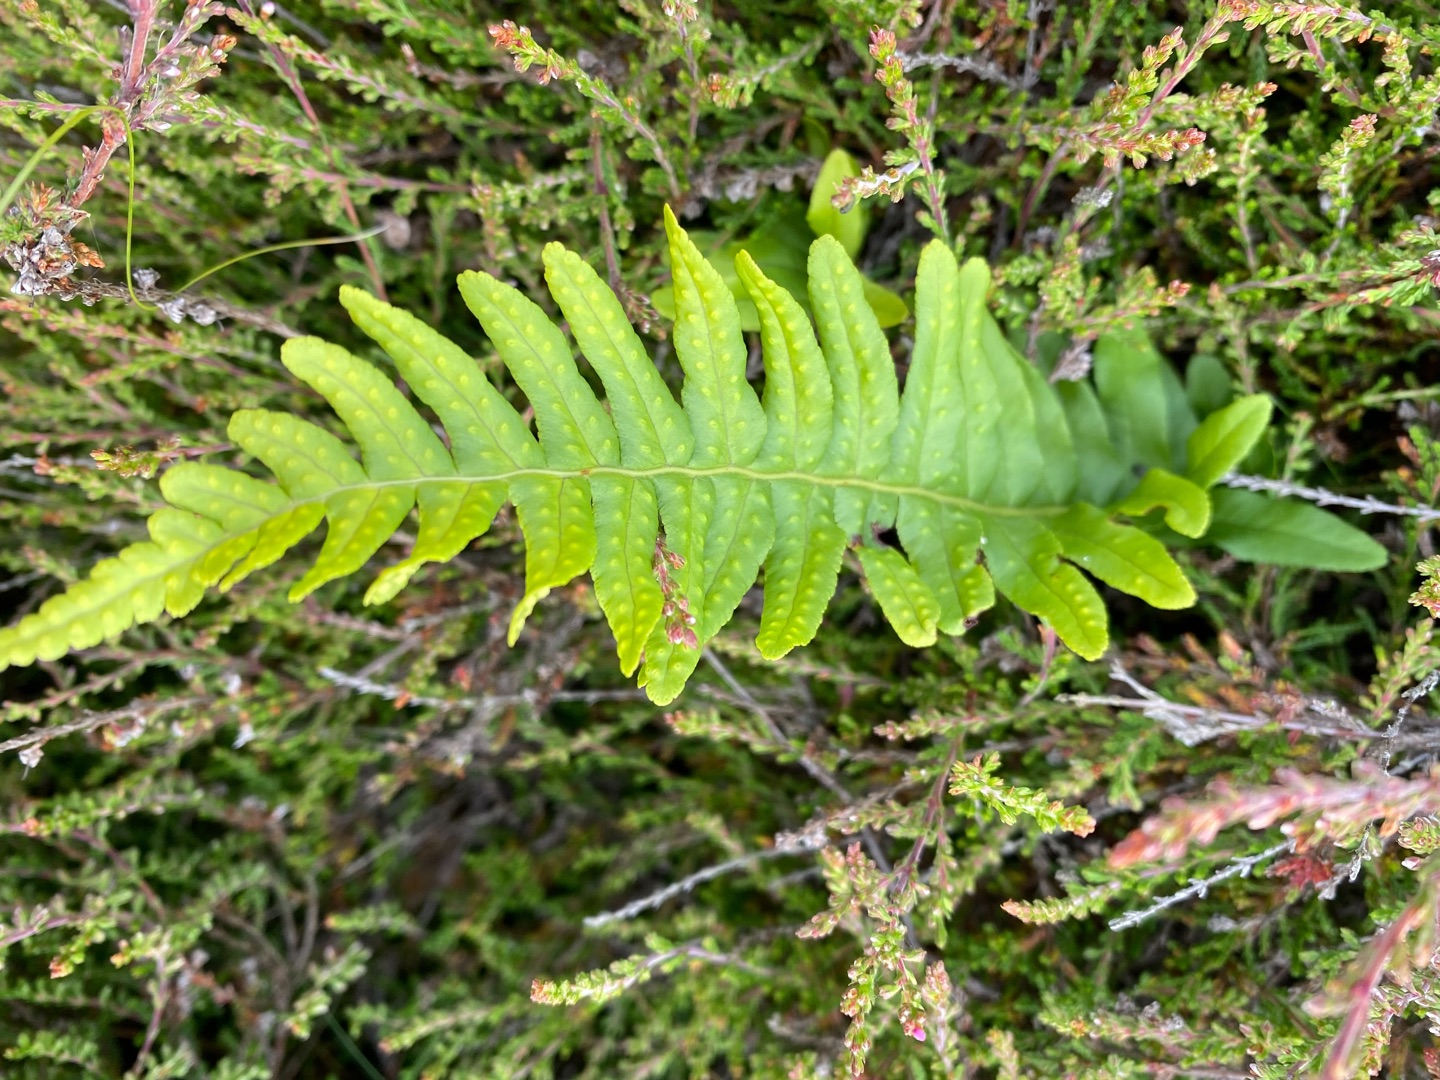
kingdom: Plantae
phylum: Tracheophyta
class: Polypodiopsida
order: Polypodiales
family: Polypodiaceae
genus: Polypodium
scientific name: Polypodium vulgare
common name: Almindelig engelsød
